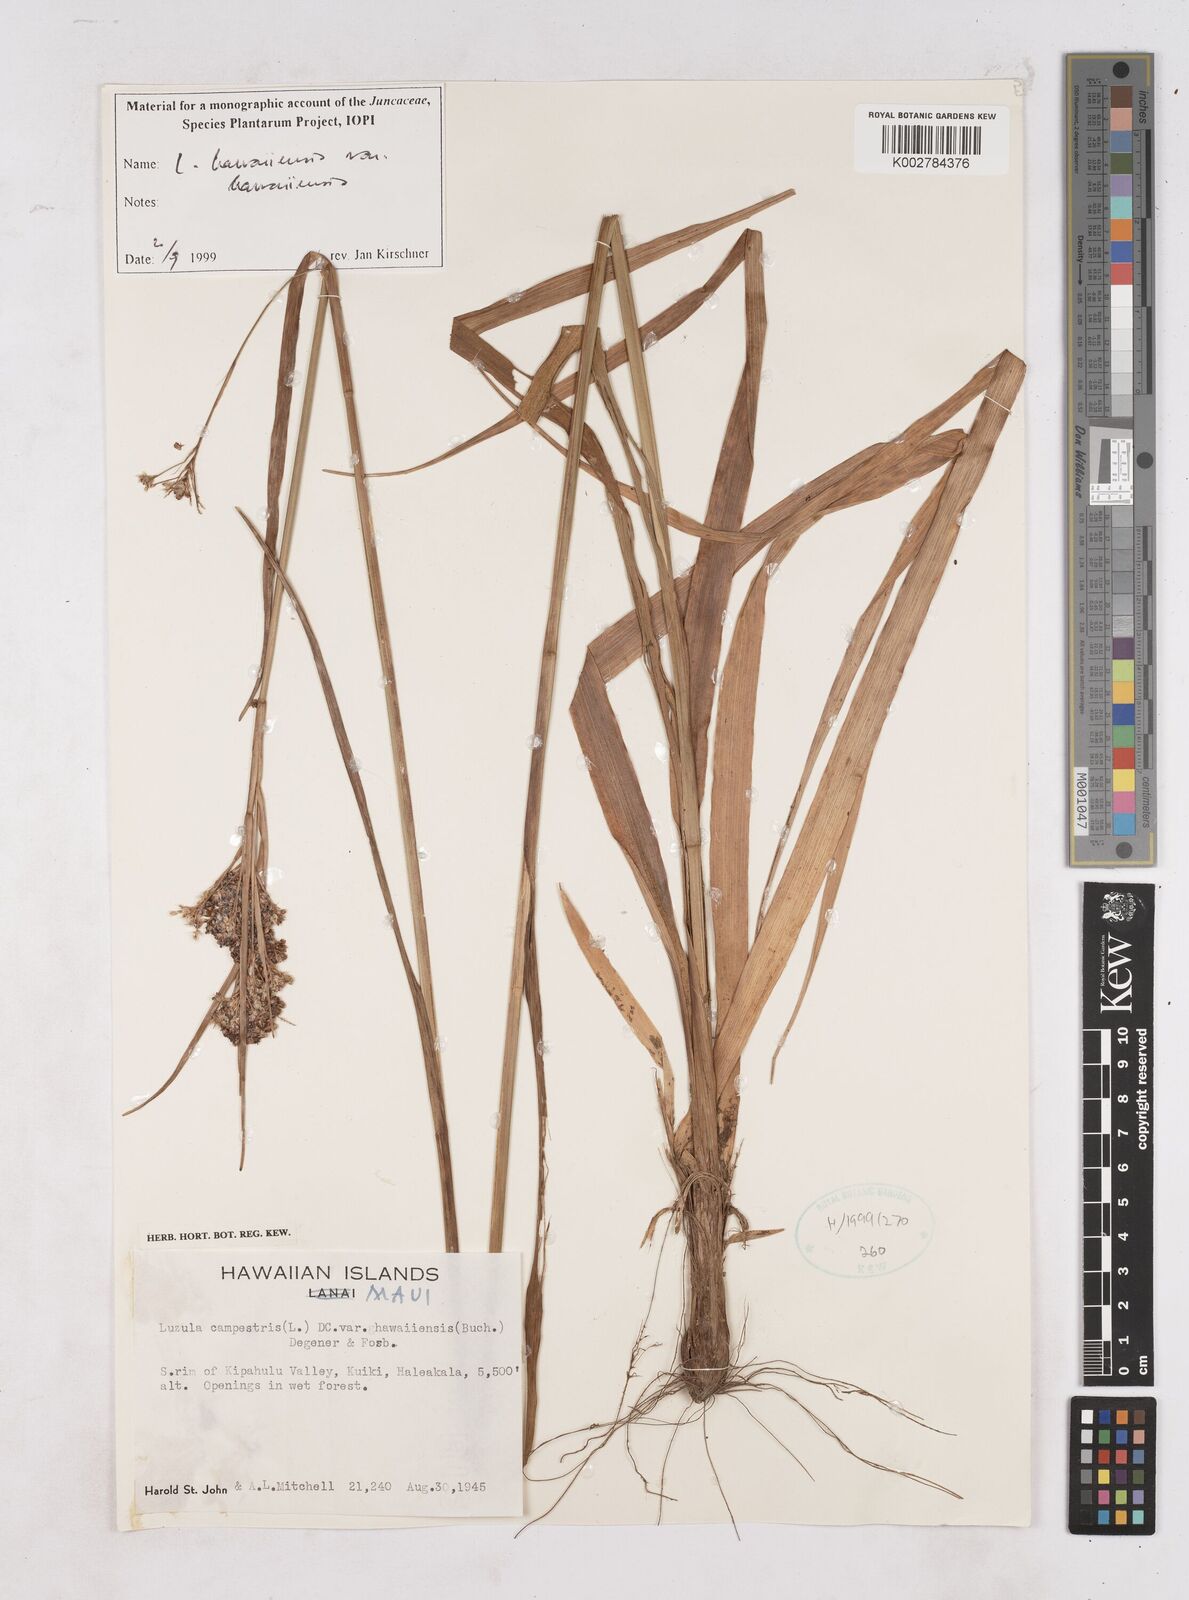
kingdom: Plantae
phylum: Tracheophyta
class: Liliopsida
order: Poales
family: Juncaceae
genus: Luzula
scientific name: Luzula campestris
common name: Field wood-rush
